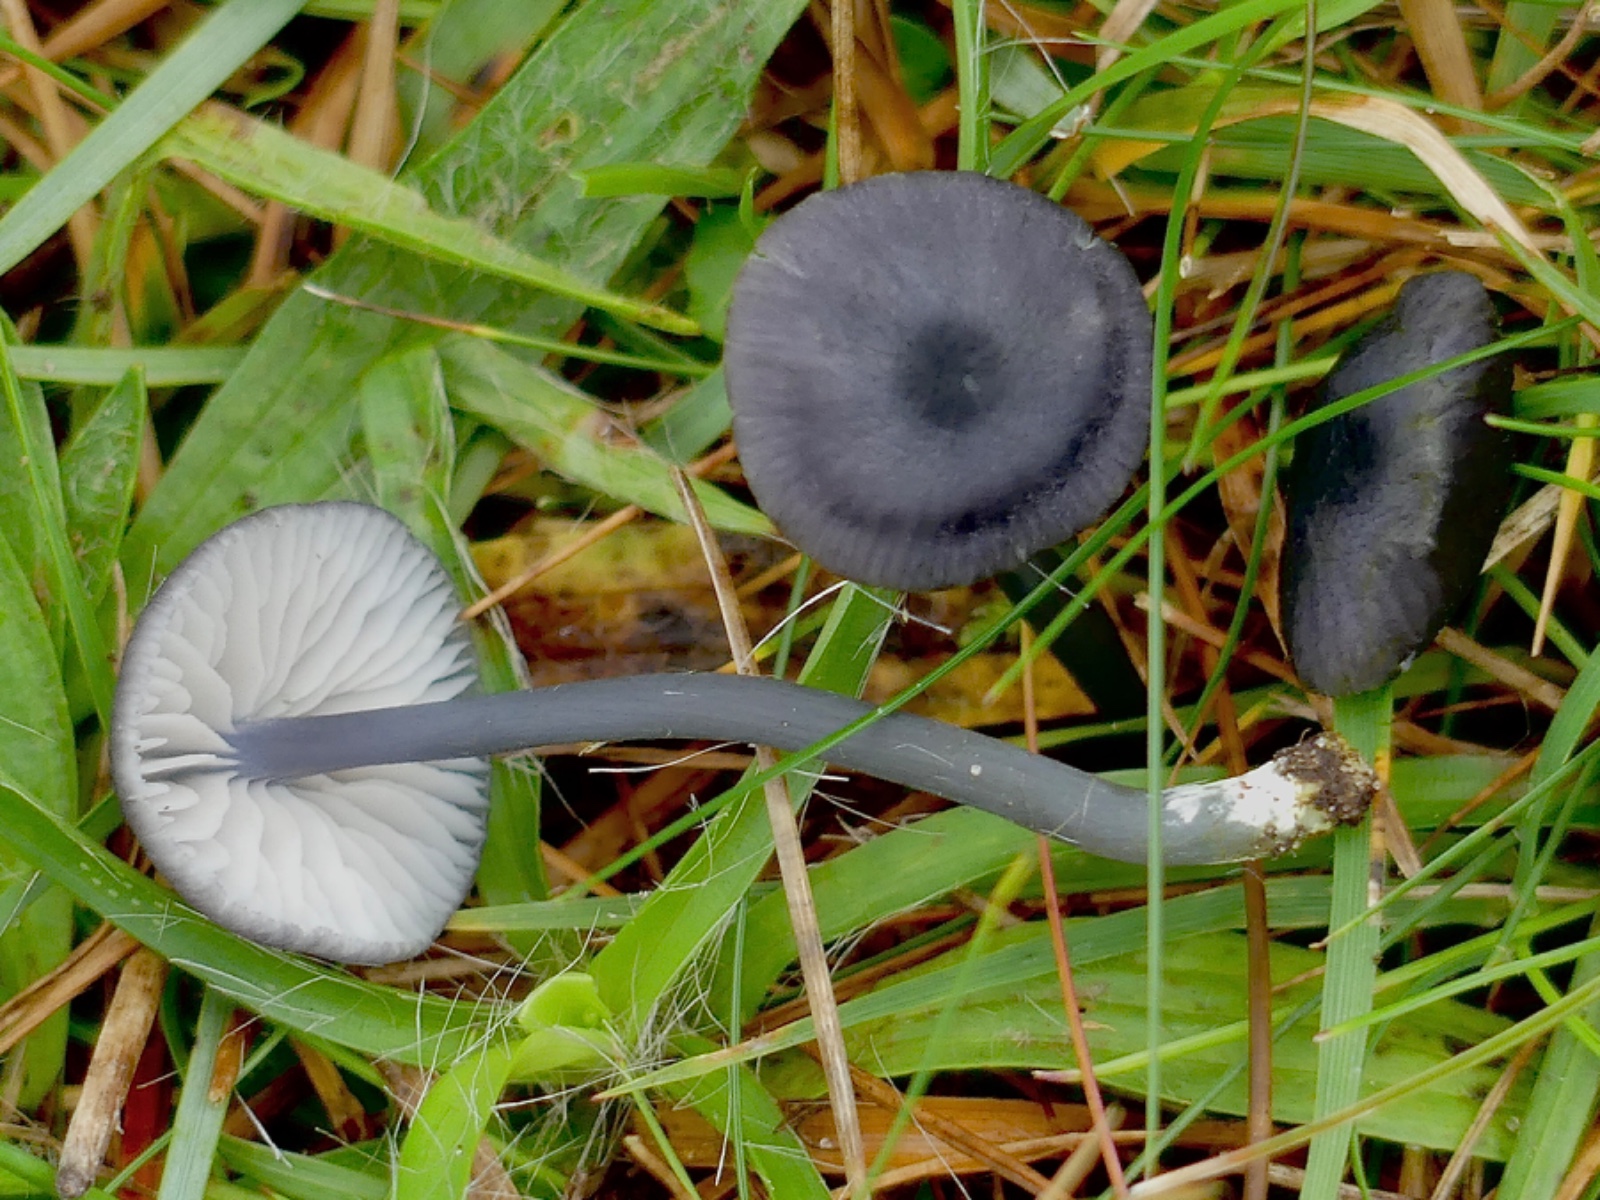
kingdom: Fungi
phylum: Basidiomycota
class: Agaricomycetes
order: Agaricales
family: Entolomataceae
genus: Entoloma
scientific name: Entoloma chalybeum
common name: blåbladet rødblad
